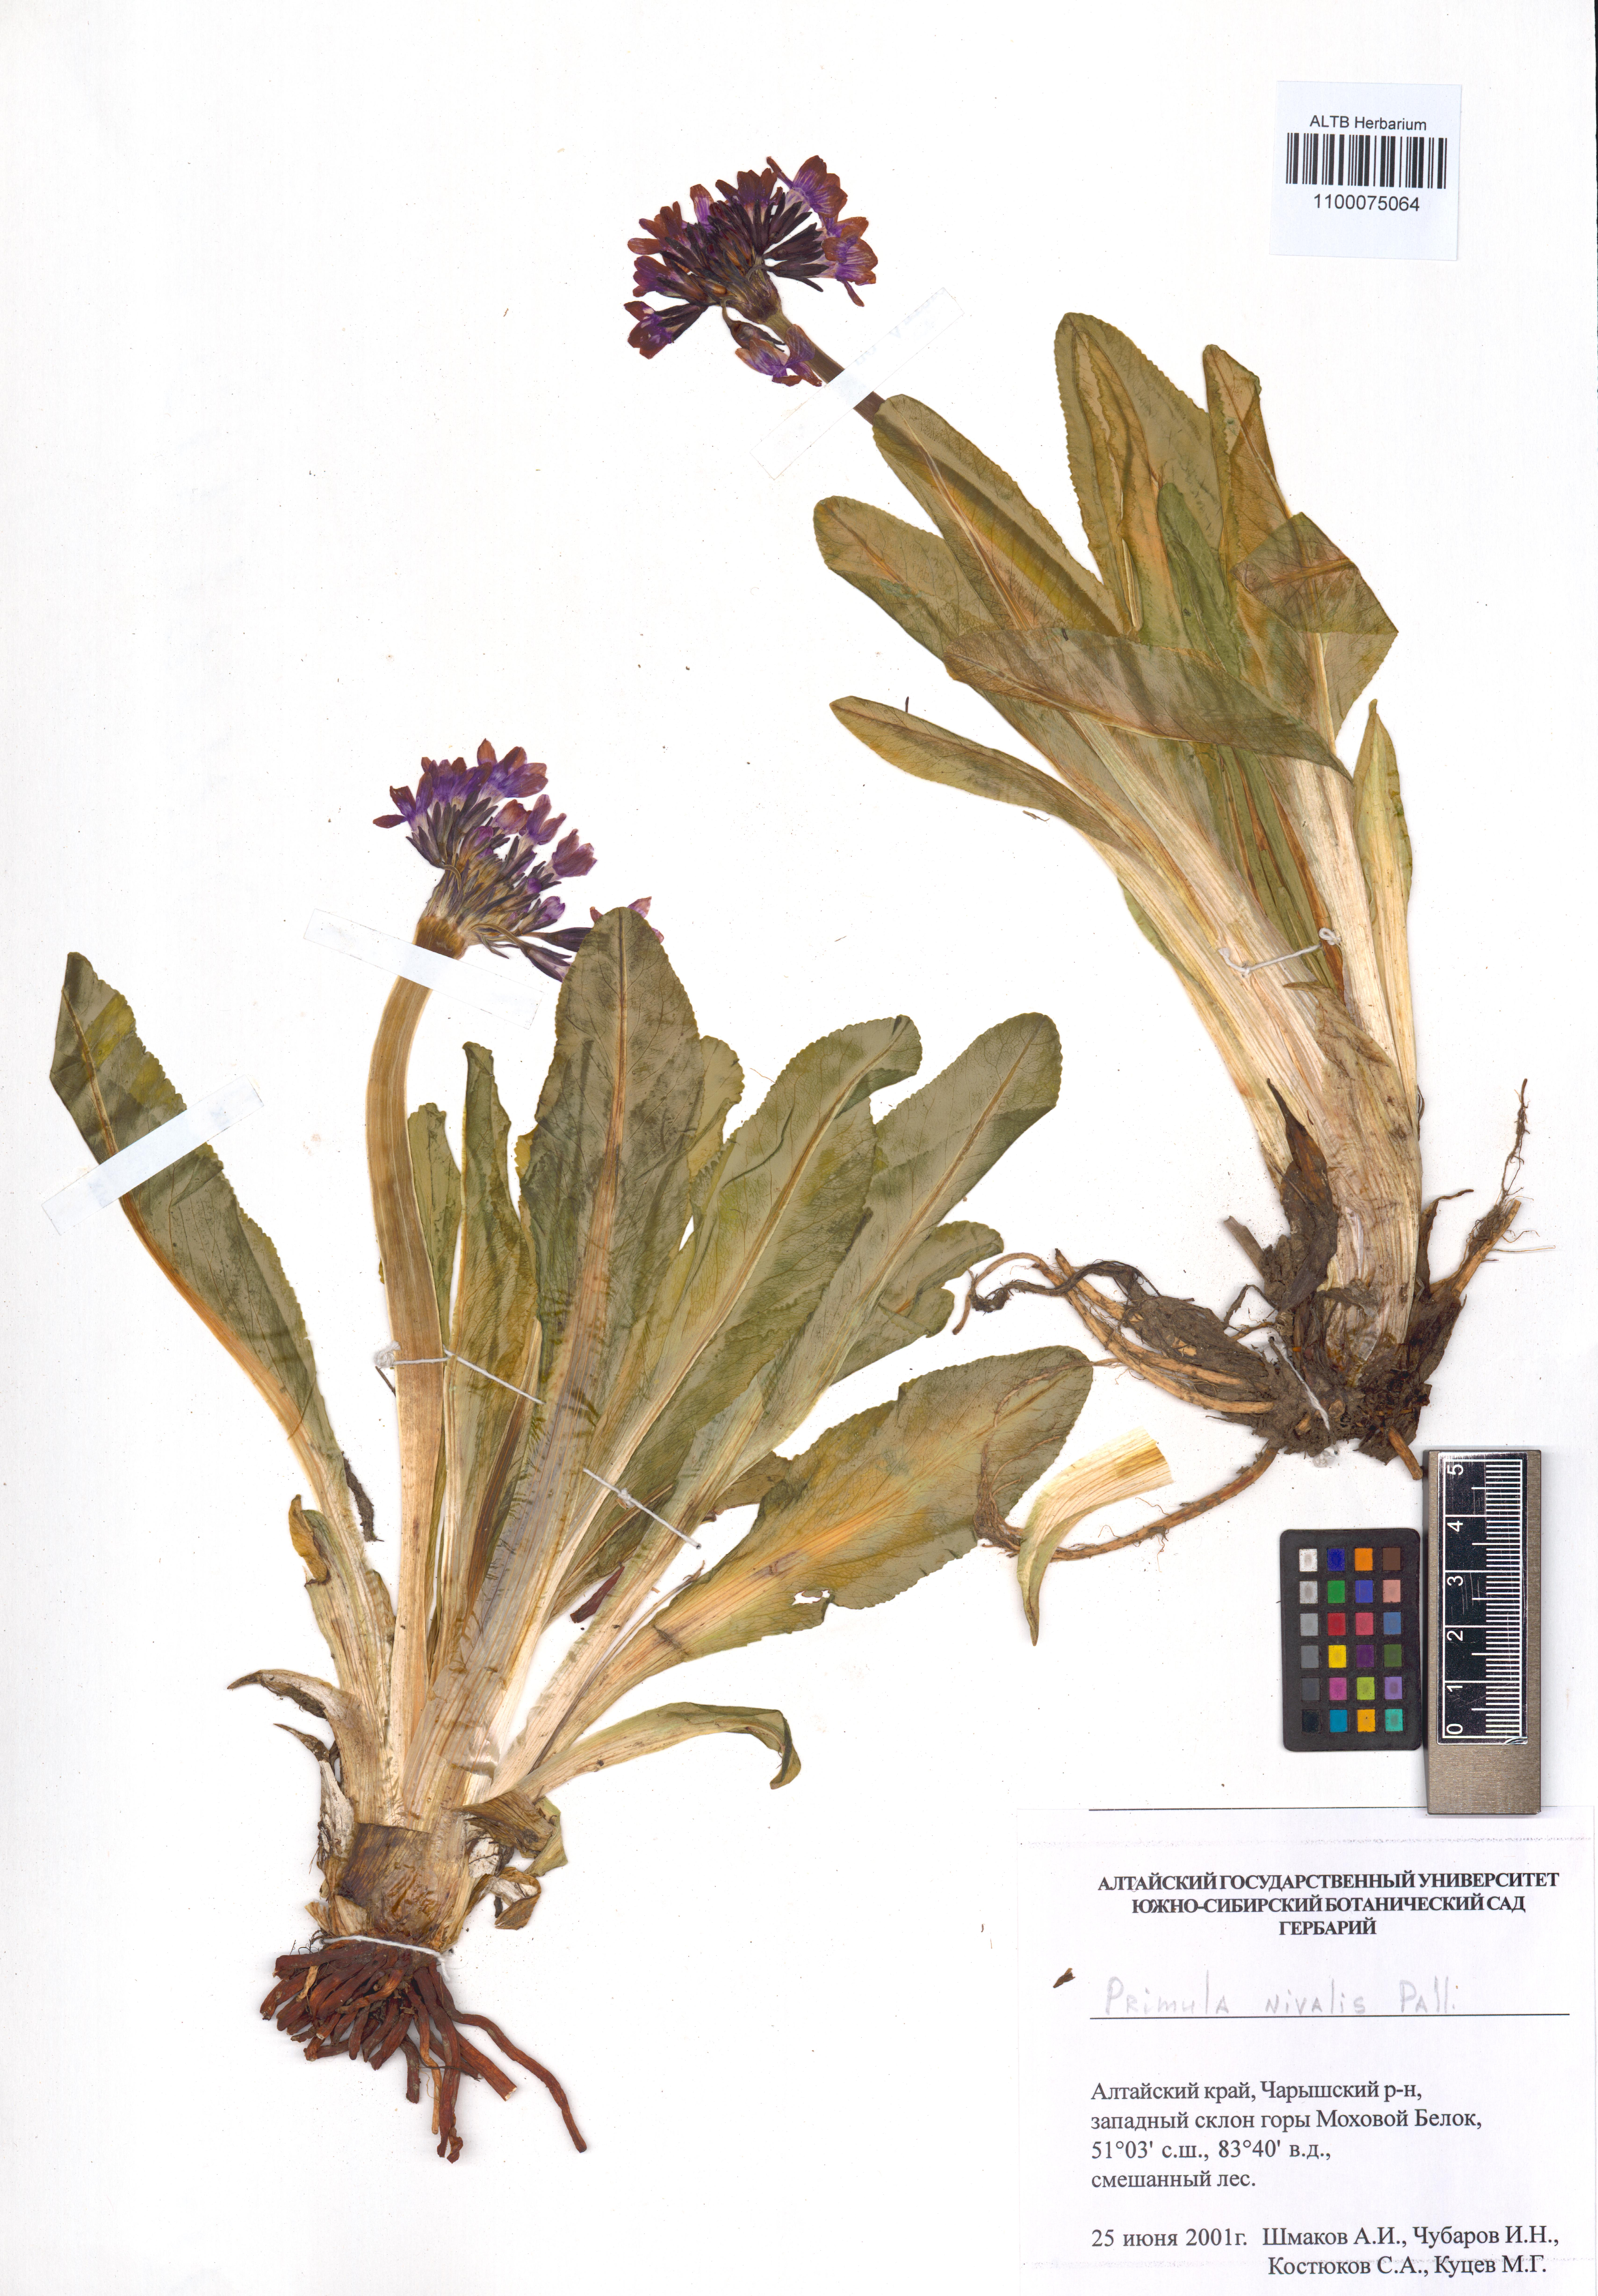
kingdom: Plantae
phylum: Tracheophyta
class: Magnoliopsida
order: Ericales
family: Primulaceae
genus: Primula
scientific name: Primula nivalis
